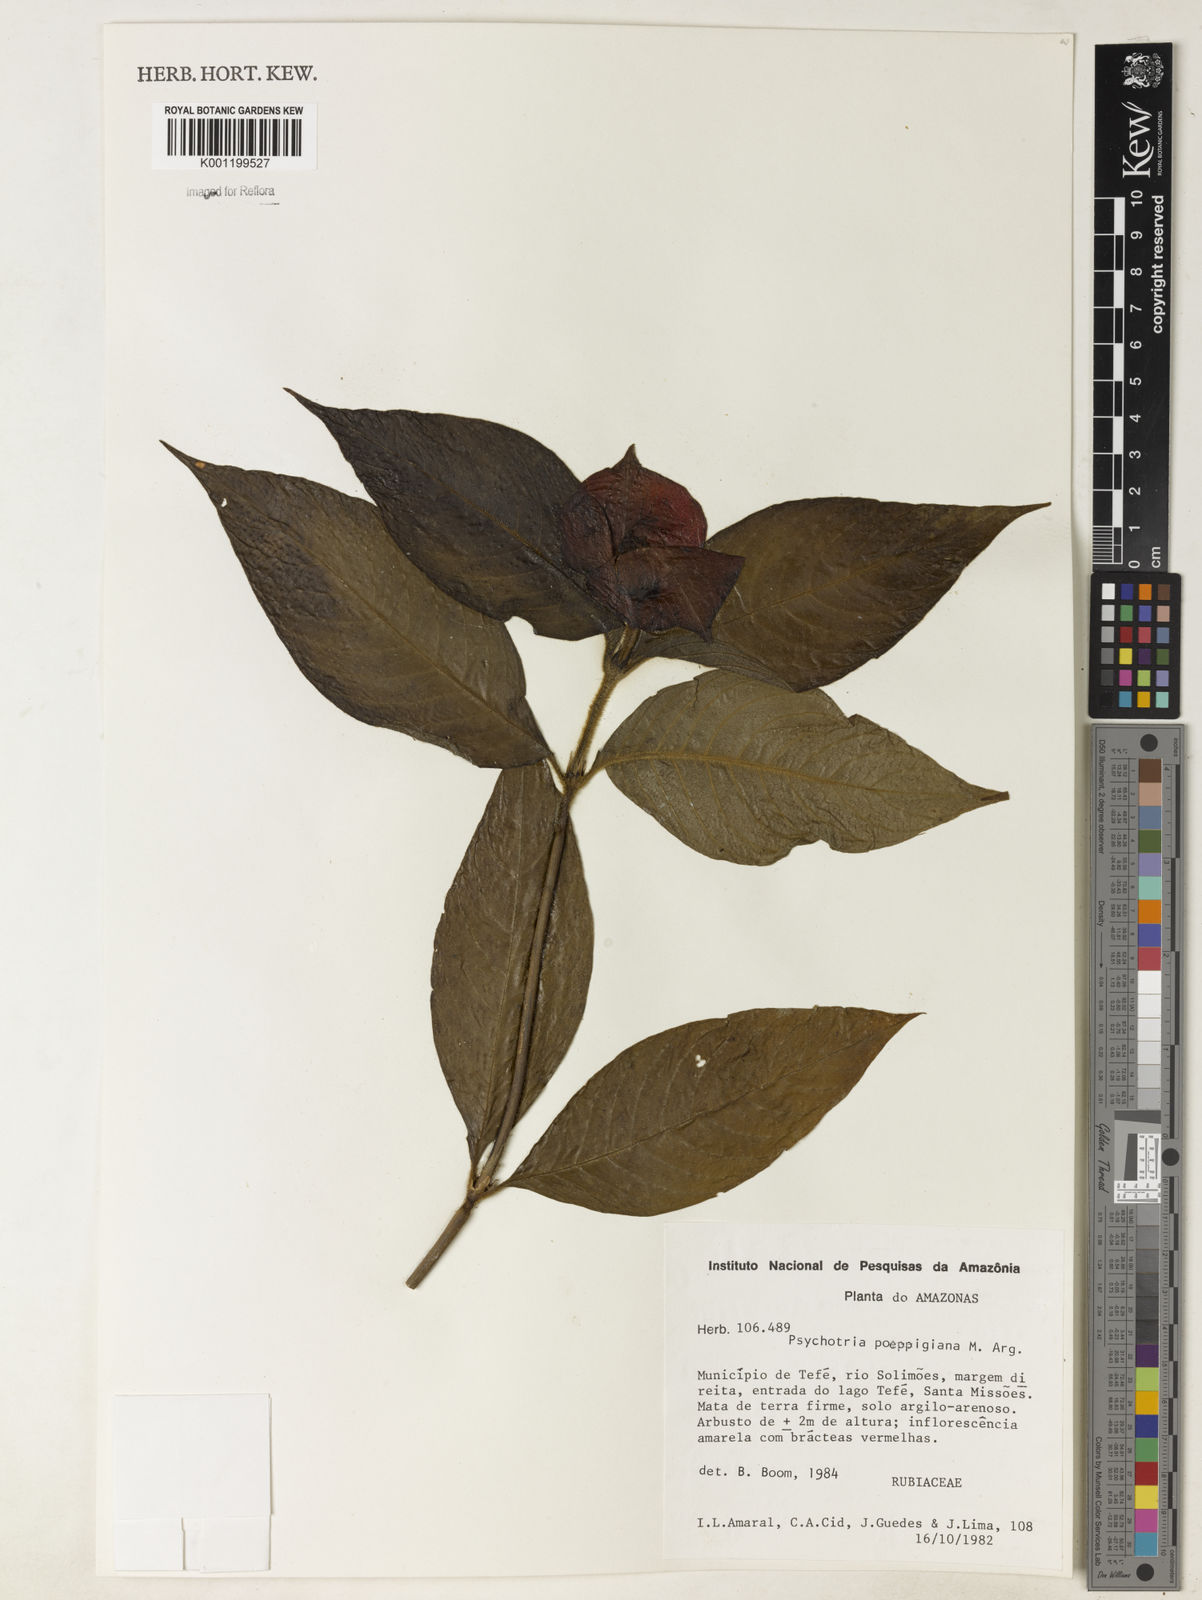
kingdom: Plantae
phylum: Tracheophyta
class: Magnoliopsida
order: Gentianales
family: Rubiaceae
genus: Psychotria
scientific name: Psychotria
